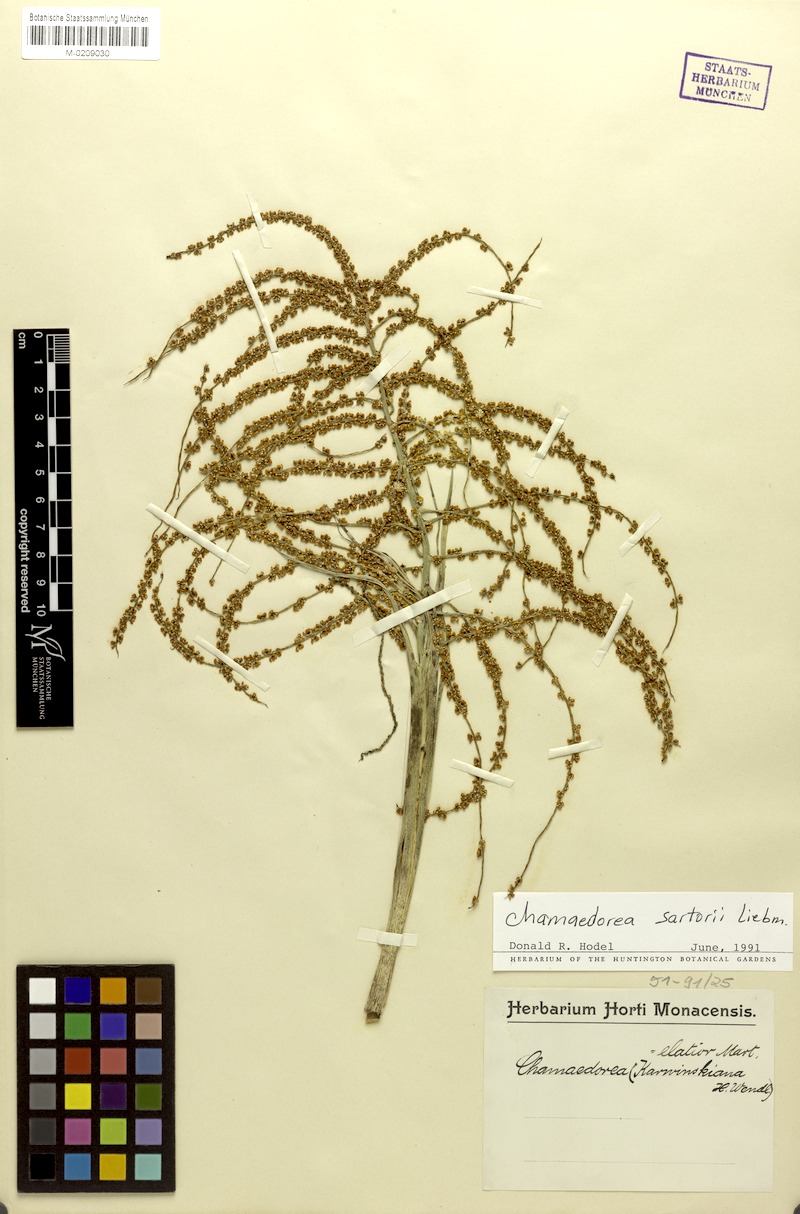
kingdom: Plantae
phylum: Tracheophyta
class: Liliopsida
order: Arecales
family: Arecaceae
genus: Chamaedorea
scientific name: Chamaedorea sartorii
